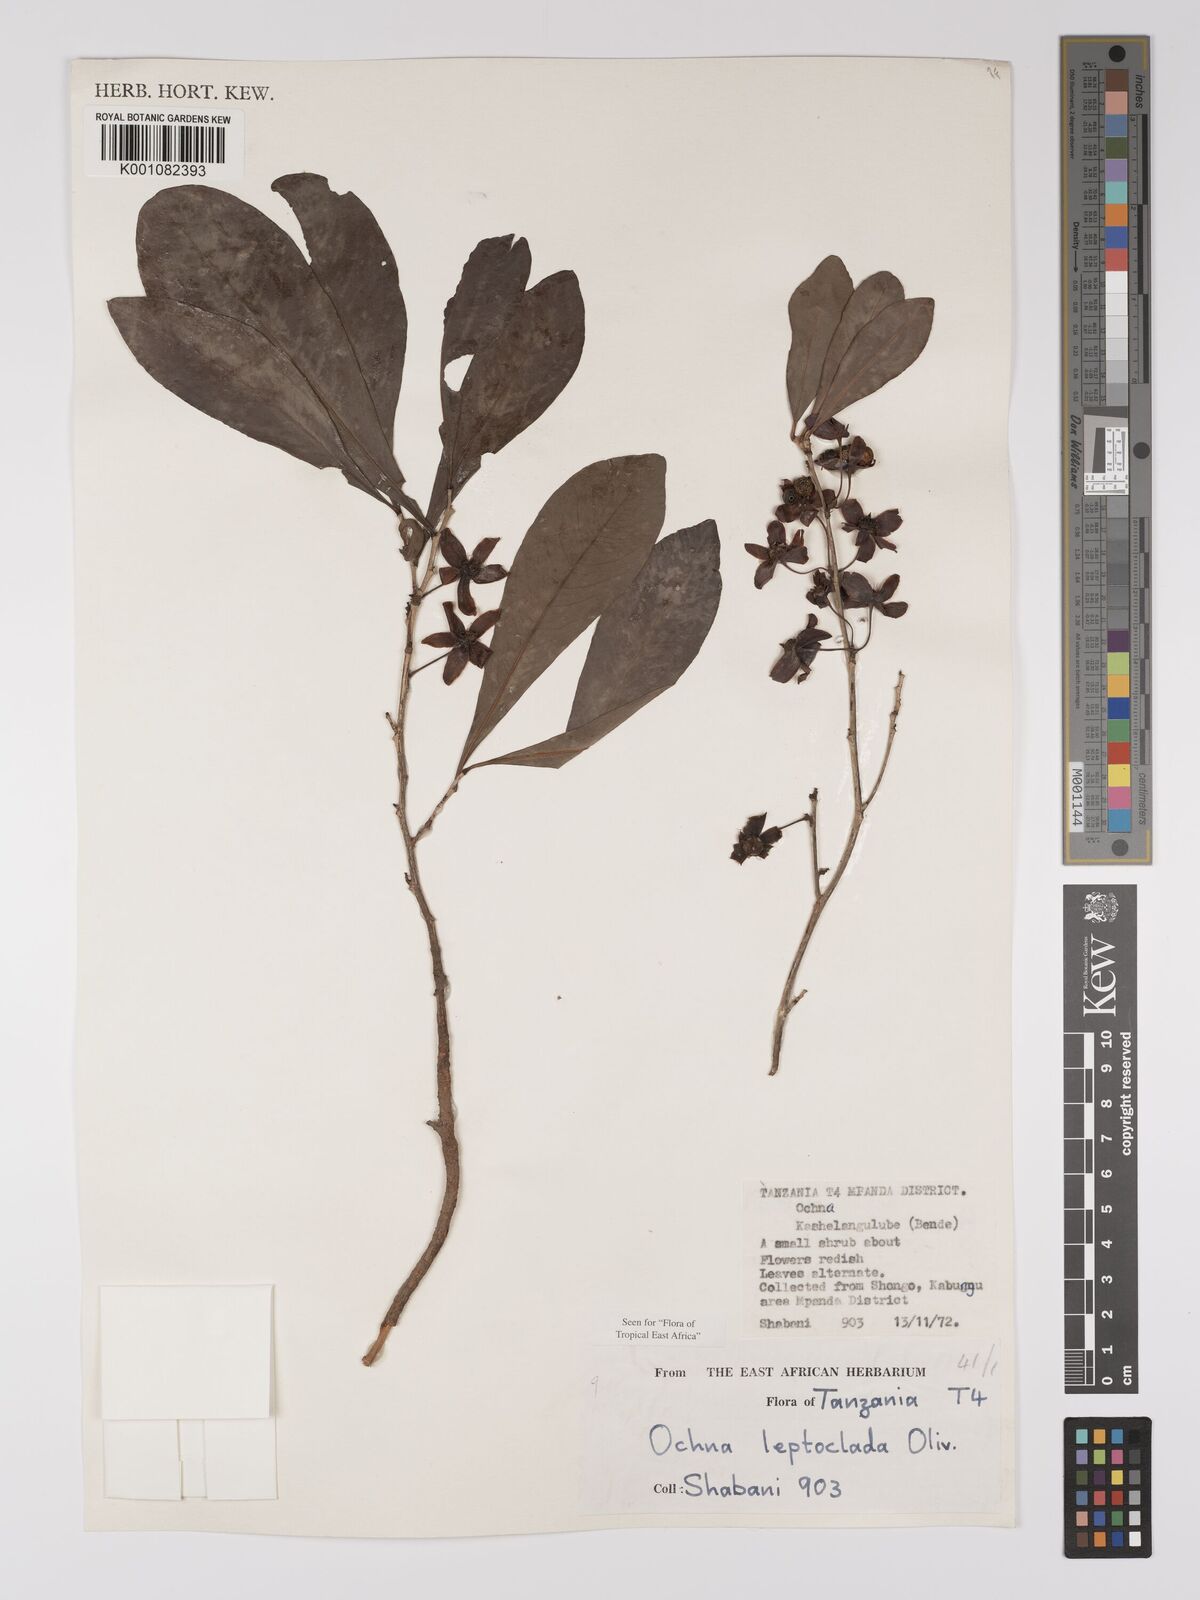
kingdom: Plantae
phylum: Tracheophyta
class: Magnoliopsida
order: Malpighiales
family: Ochnaceae
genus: Ochna
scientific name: Ochna leptoclada
